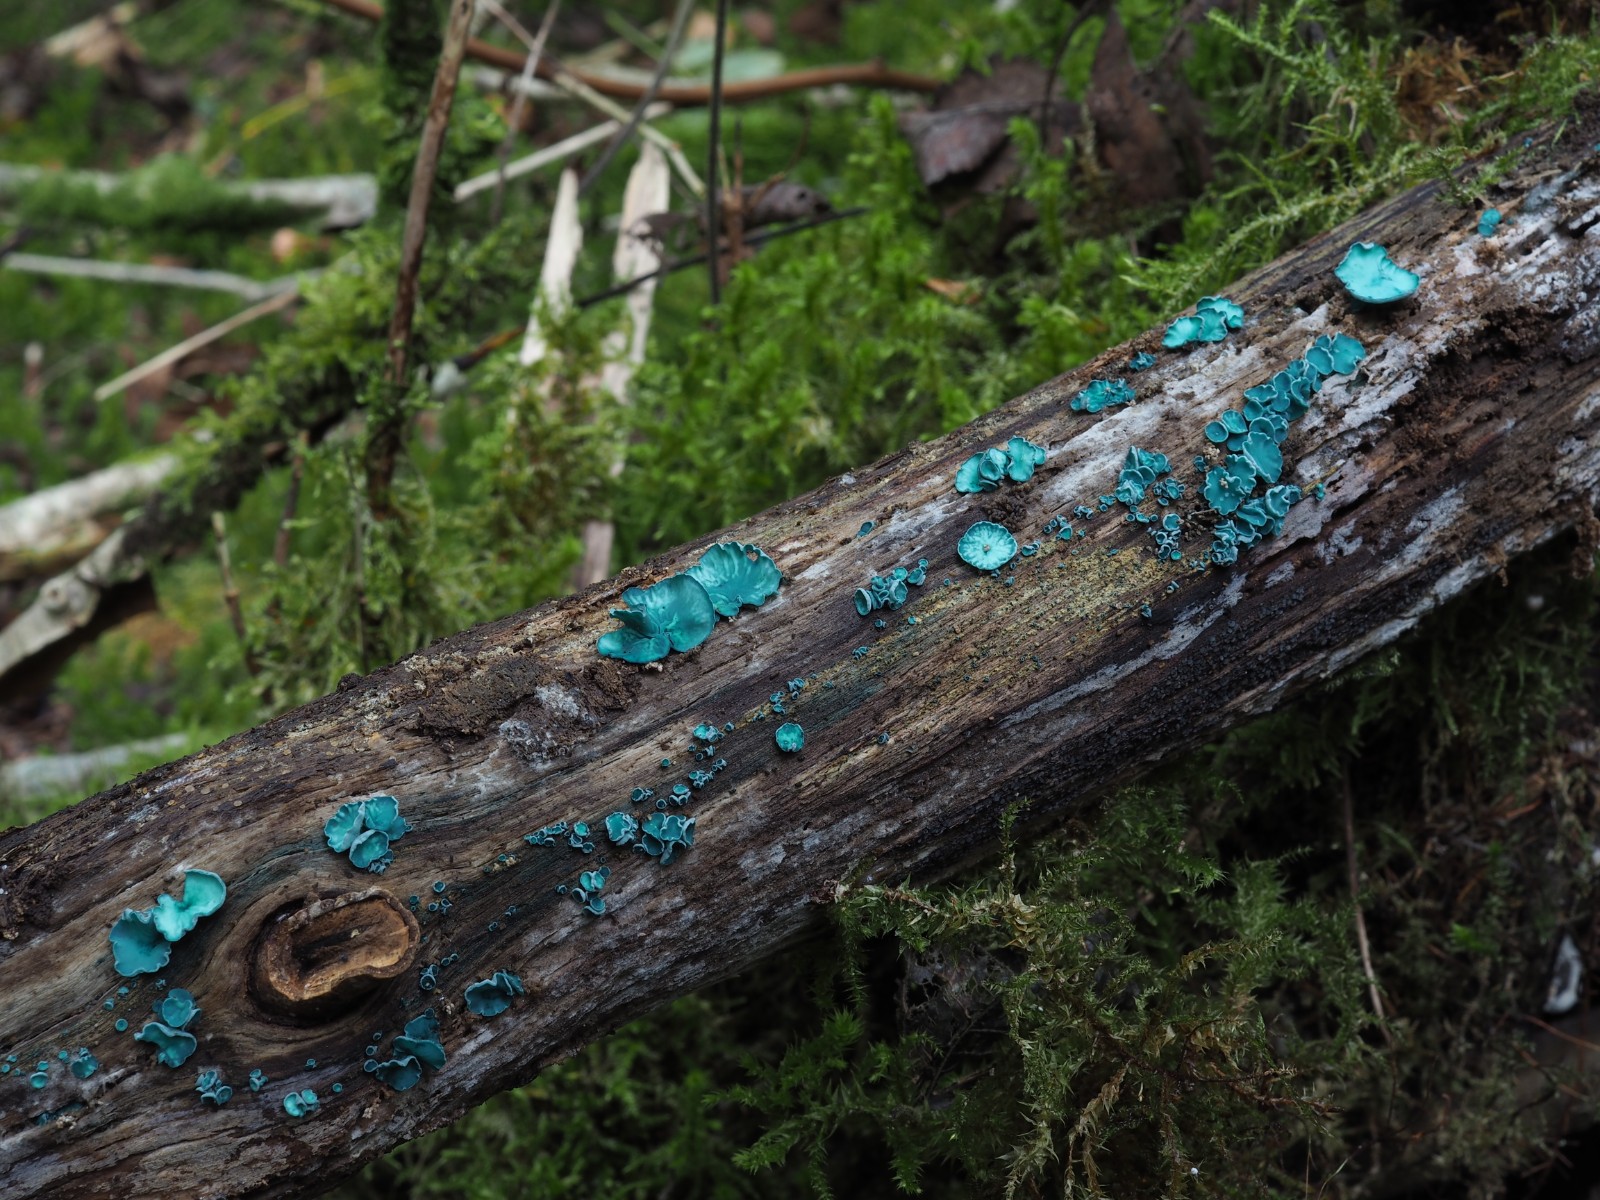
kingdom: Fungi
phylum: Ascomycota
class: Leotiomycetes
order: Helotiales
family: Chlorociboriaceae
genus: Chlorociboria
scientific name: Chlorociboria aeruginascens
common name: almindelig grønskive
